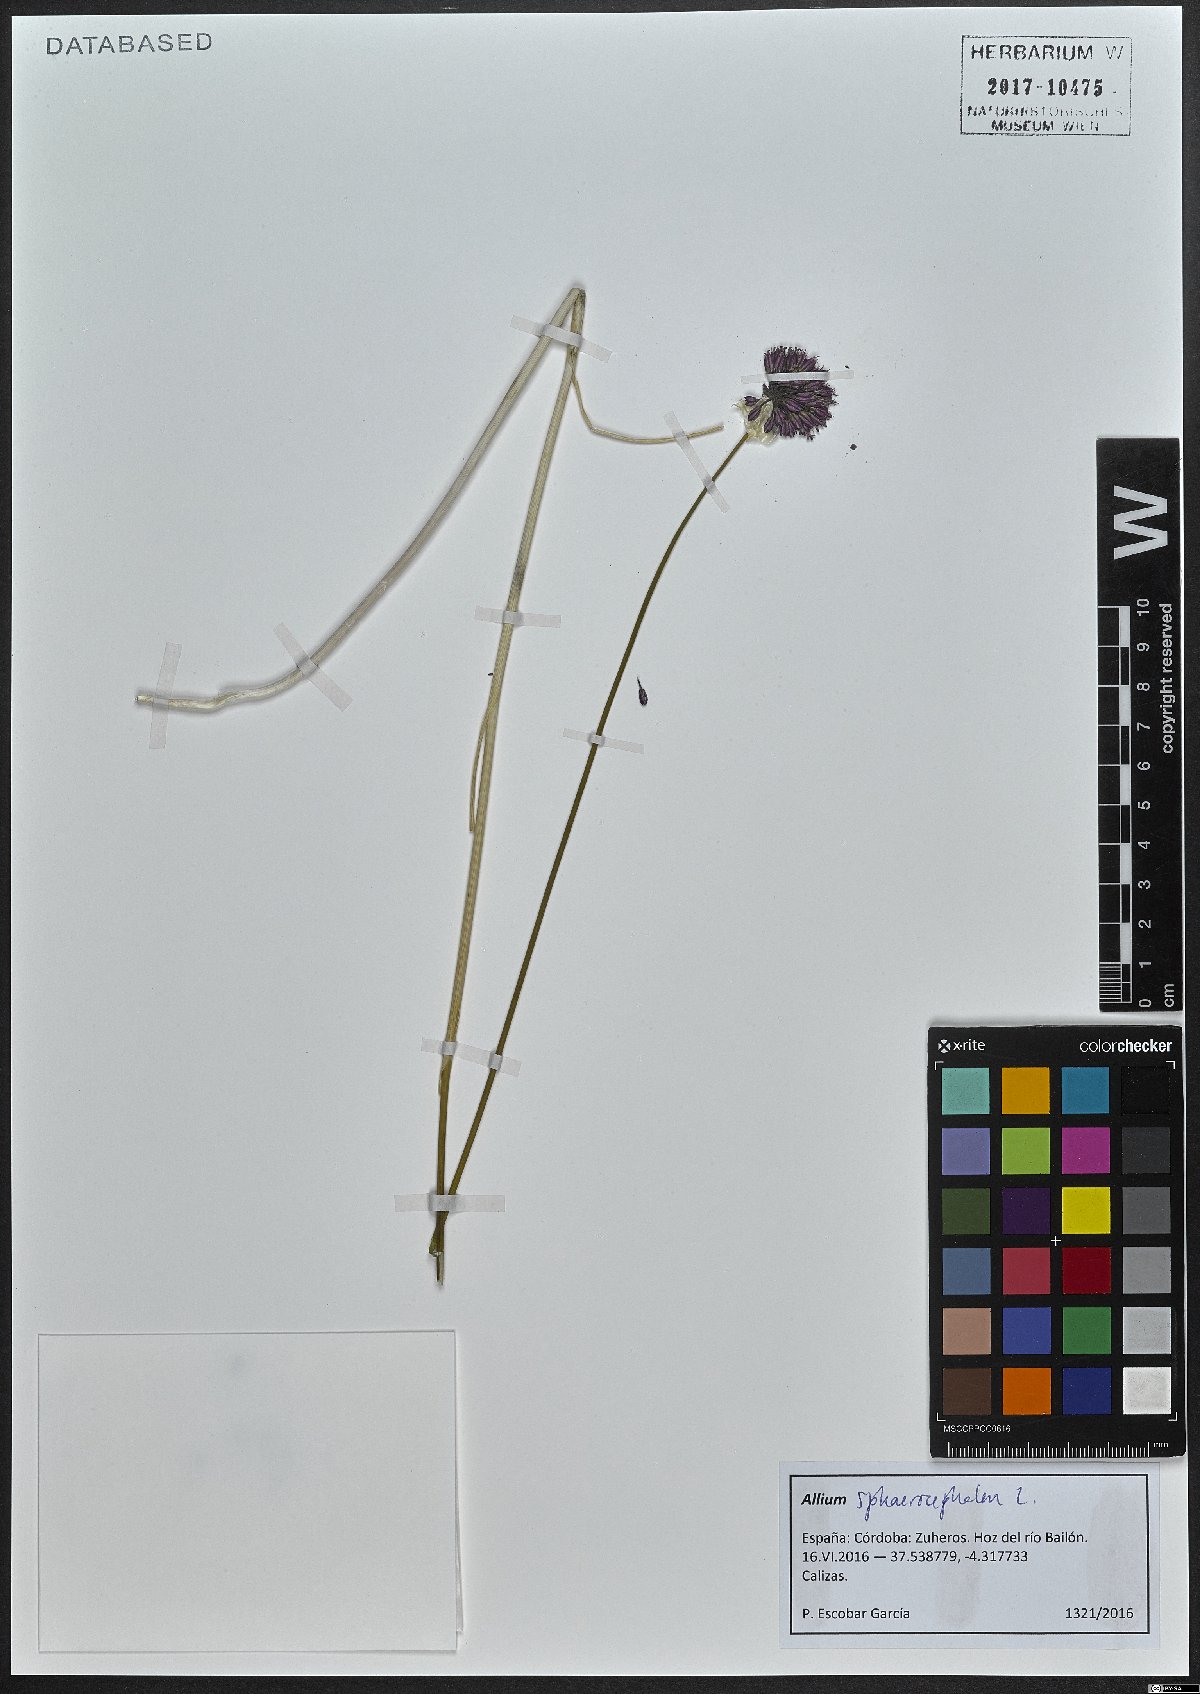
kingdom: Plantae
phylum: Tracheophyta
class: Liliopsida
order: Asparagales
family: Amaryllidaceae
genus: Allium
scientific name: Allium sphaerocephalon
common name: Round-headed leek
